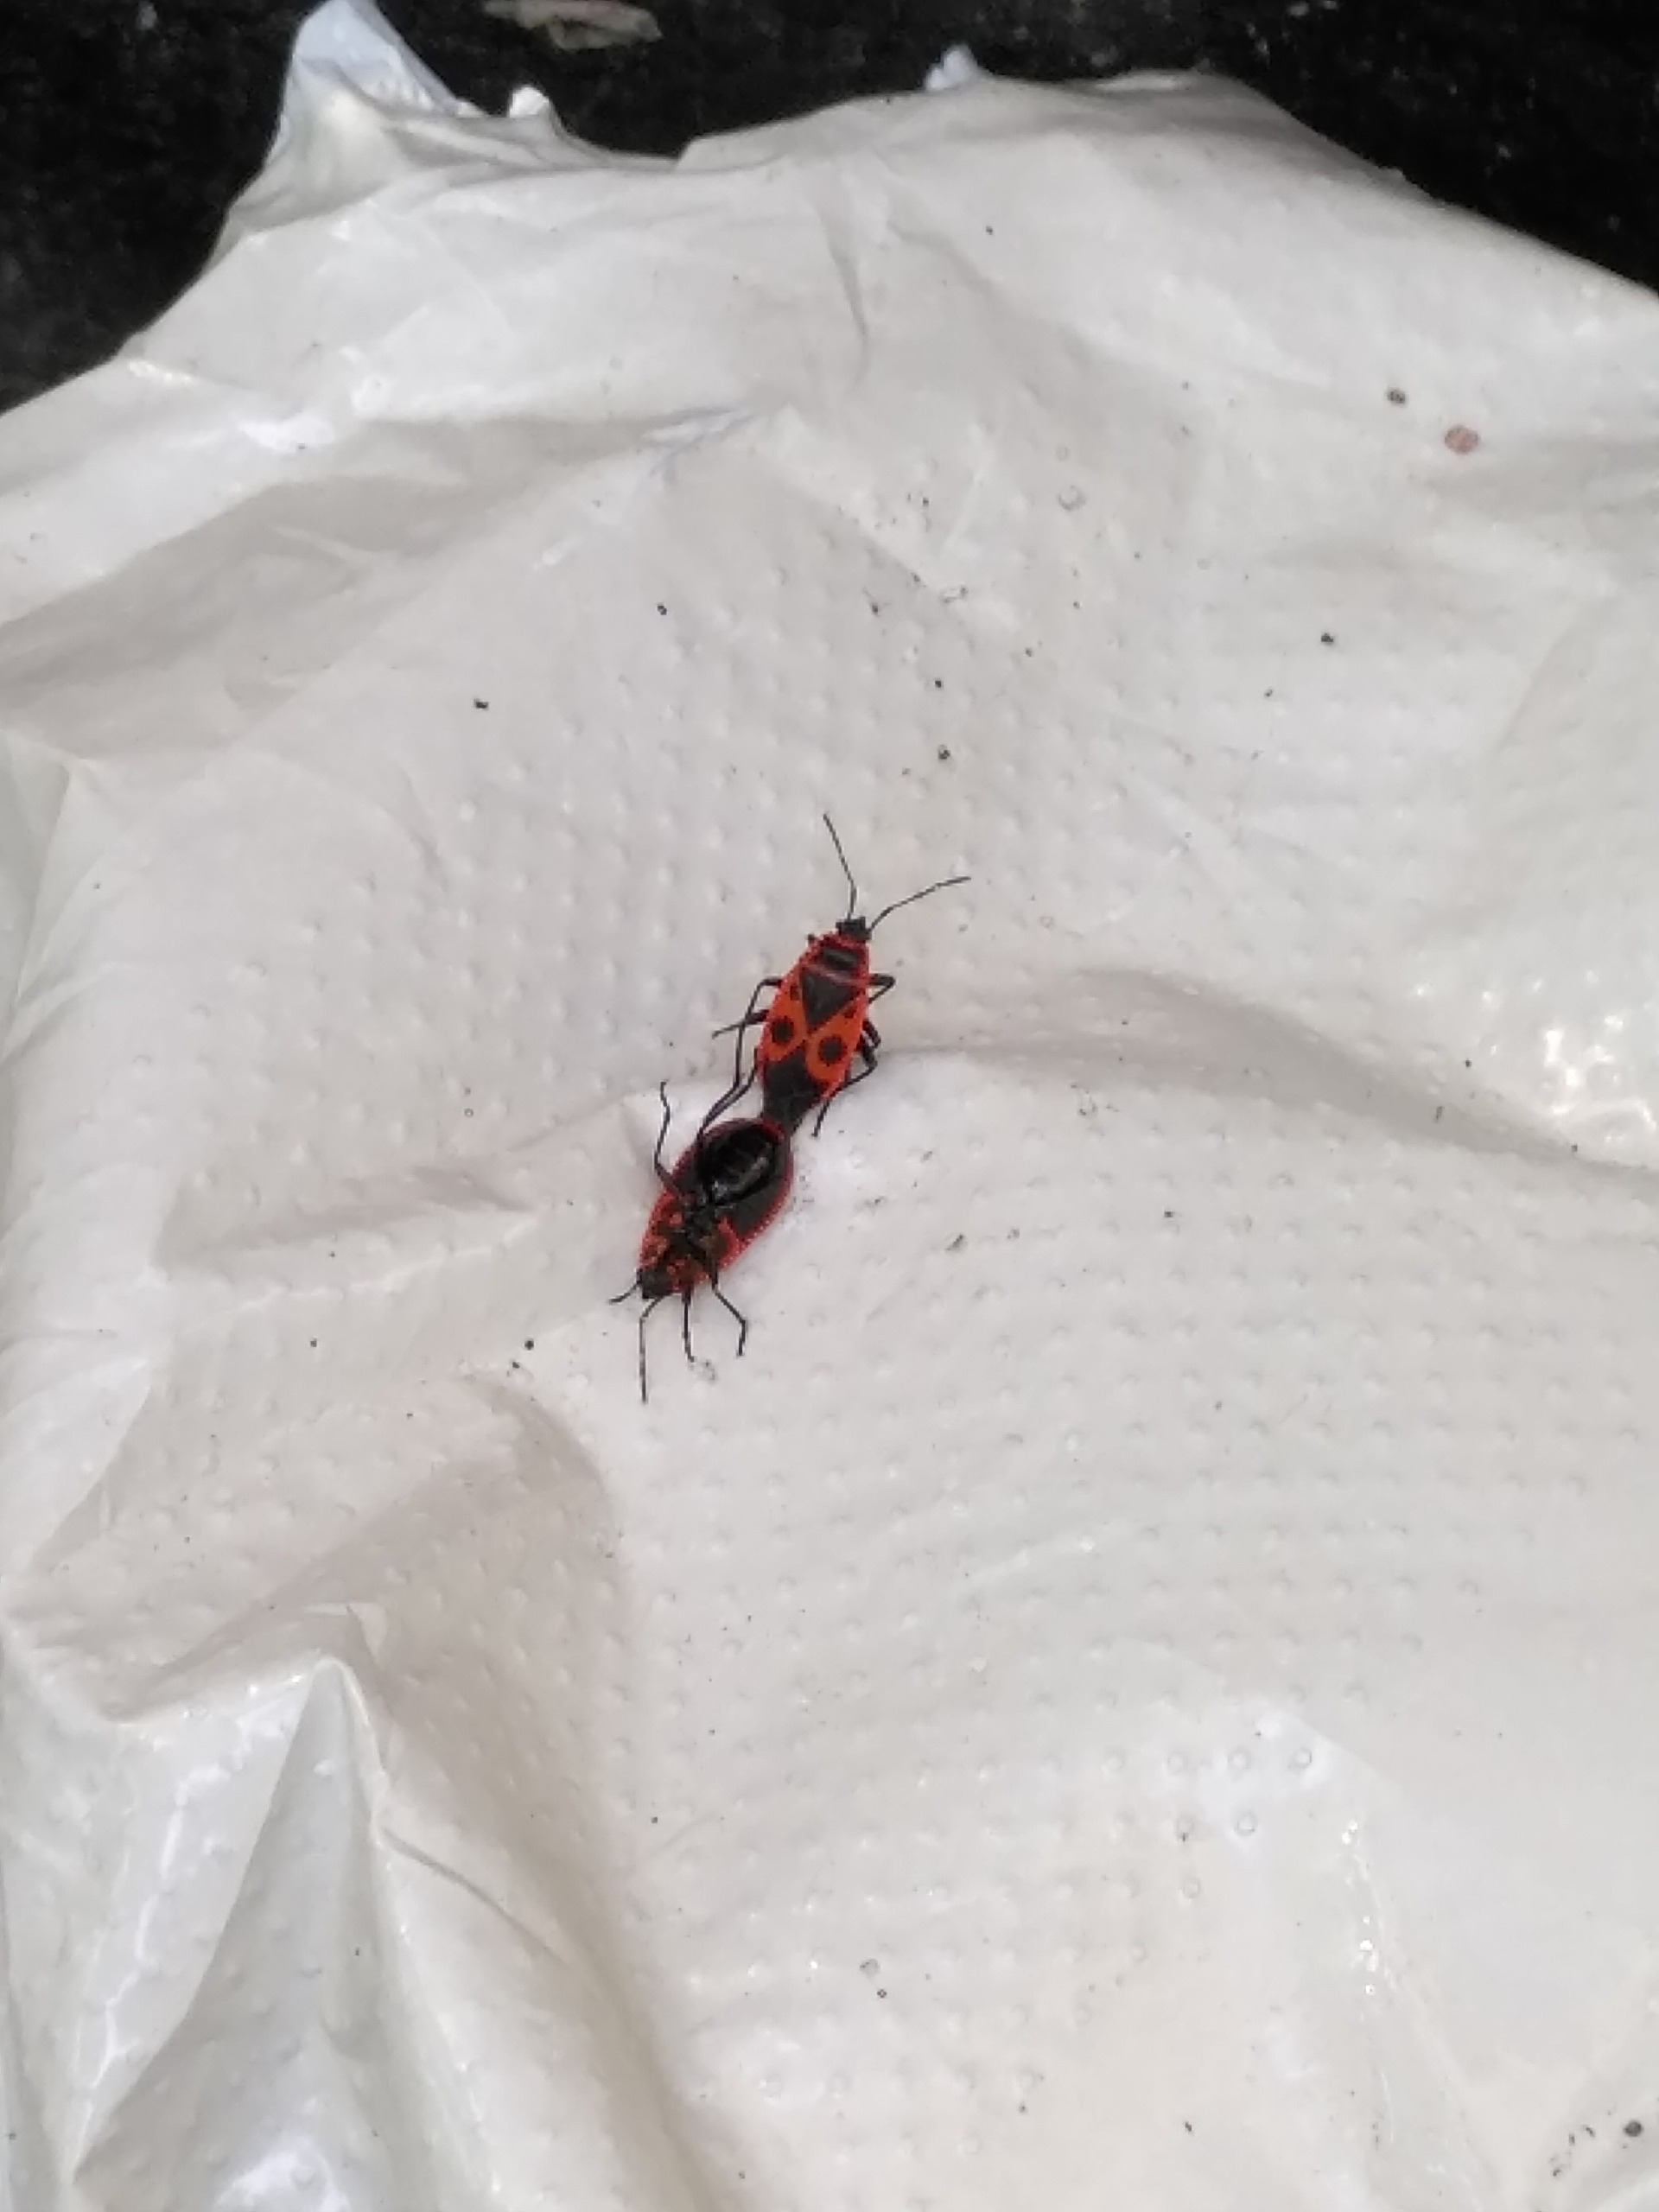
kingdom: Animalia
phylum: Arthropoda
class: Insecta
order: Hemiptera
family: Pyrrhocoridae
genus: Pyrrhocoris
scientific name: Pyrrhocoris apterus
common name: Ildtæge
